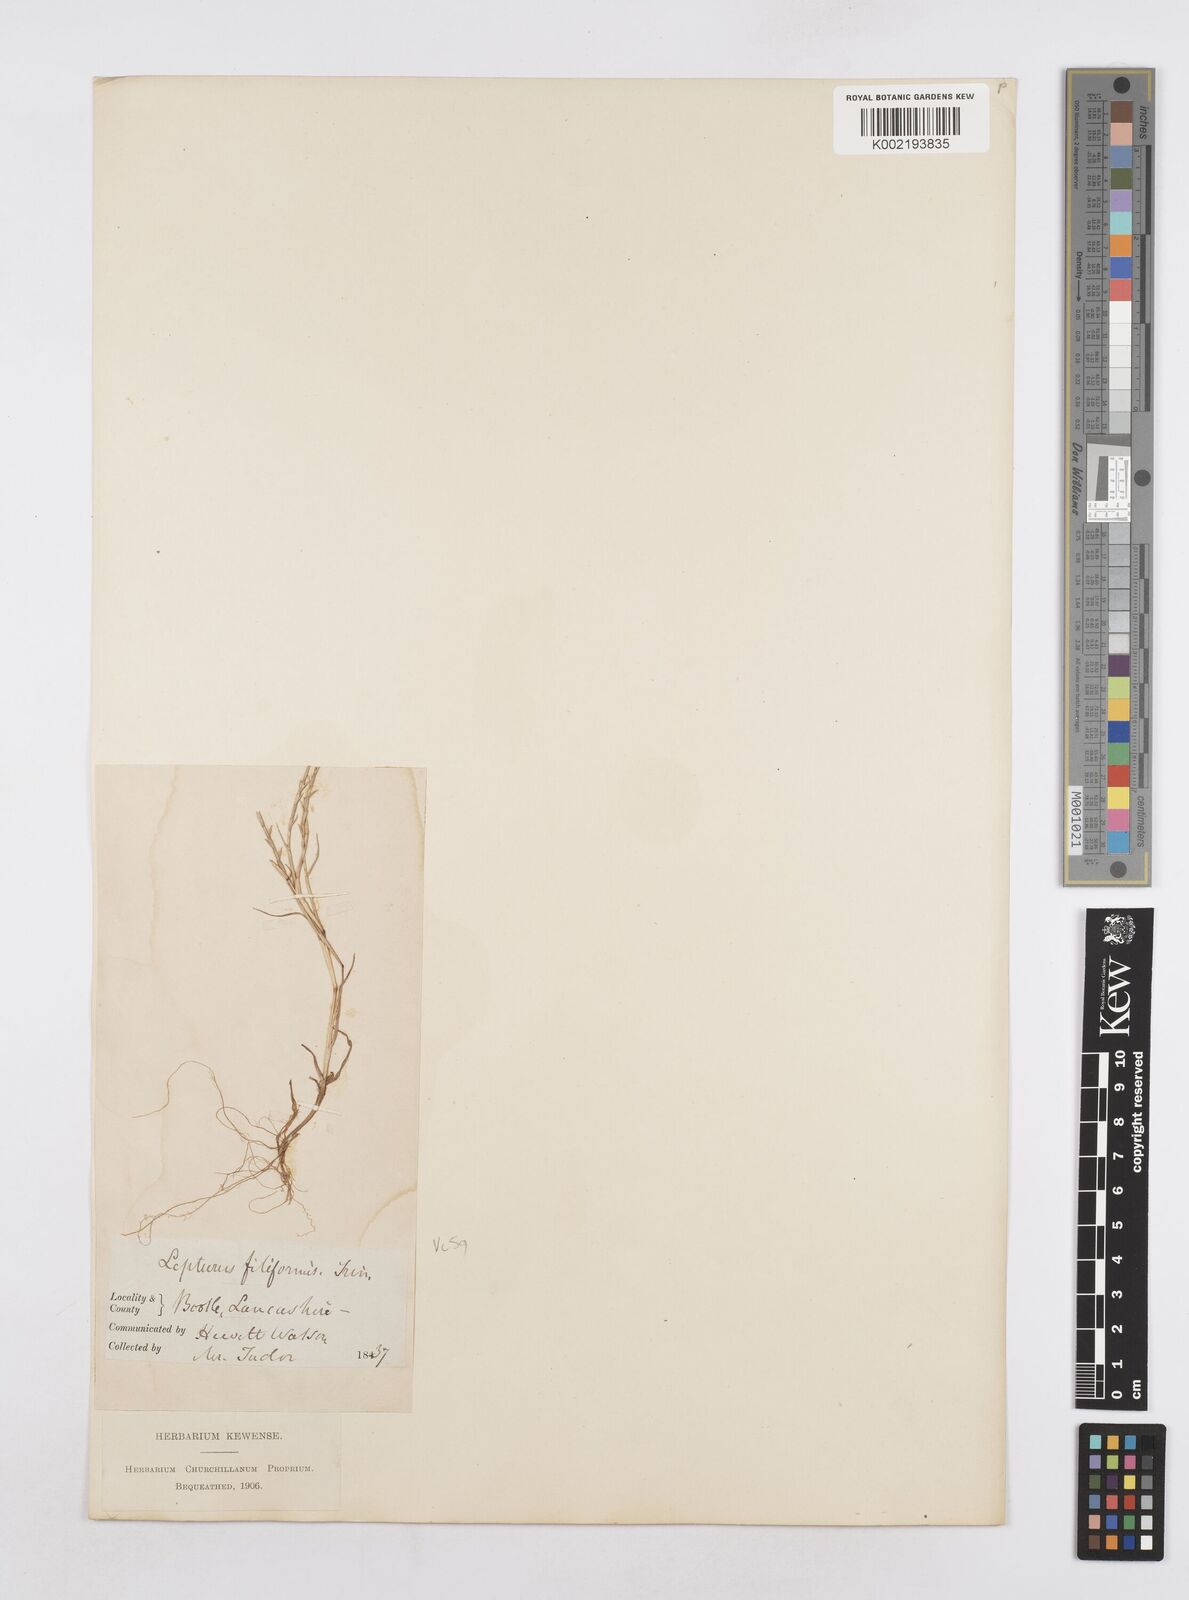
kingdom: Plantae
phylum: Tracheophyta
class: Liliopsida
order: Poales
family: Poaceae
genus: Parapholis
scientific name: Parapholis strigosa
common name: Hard-grass
